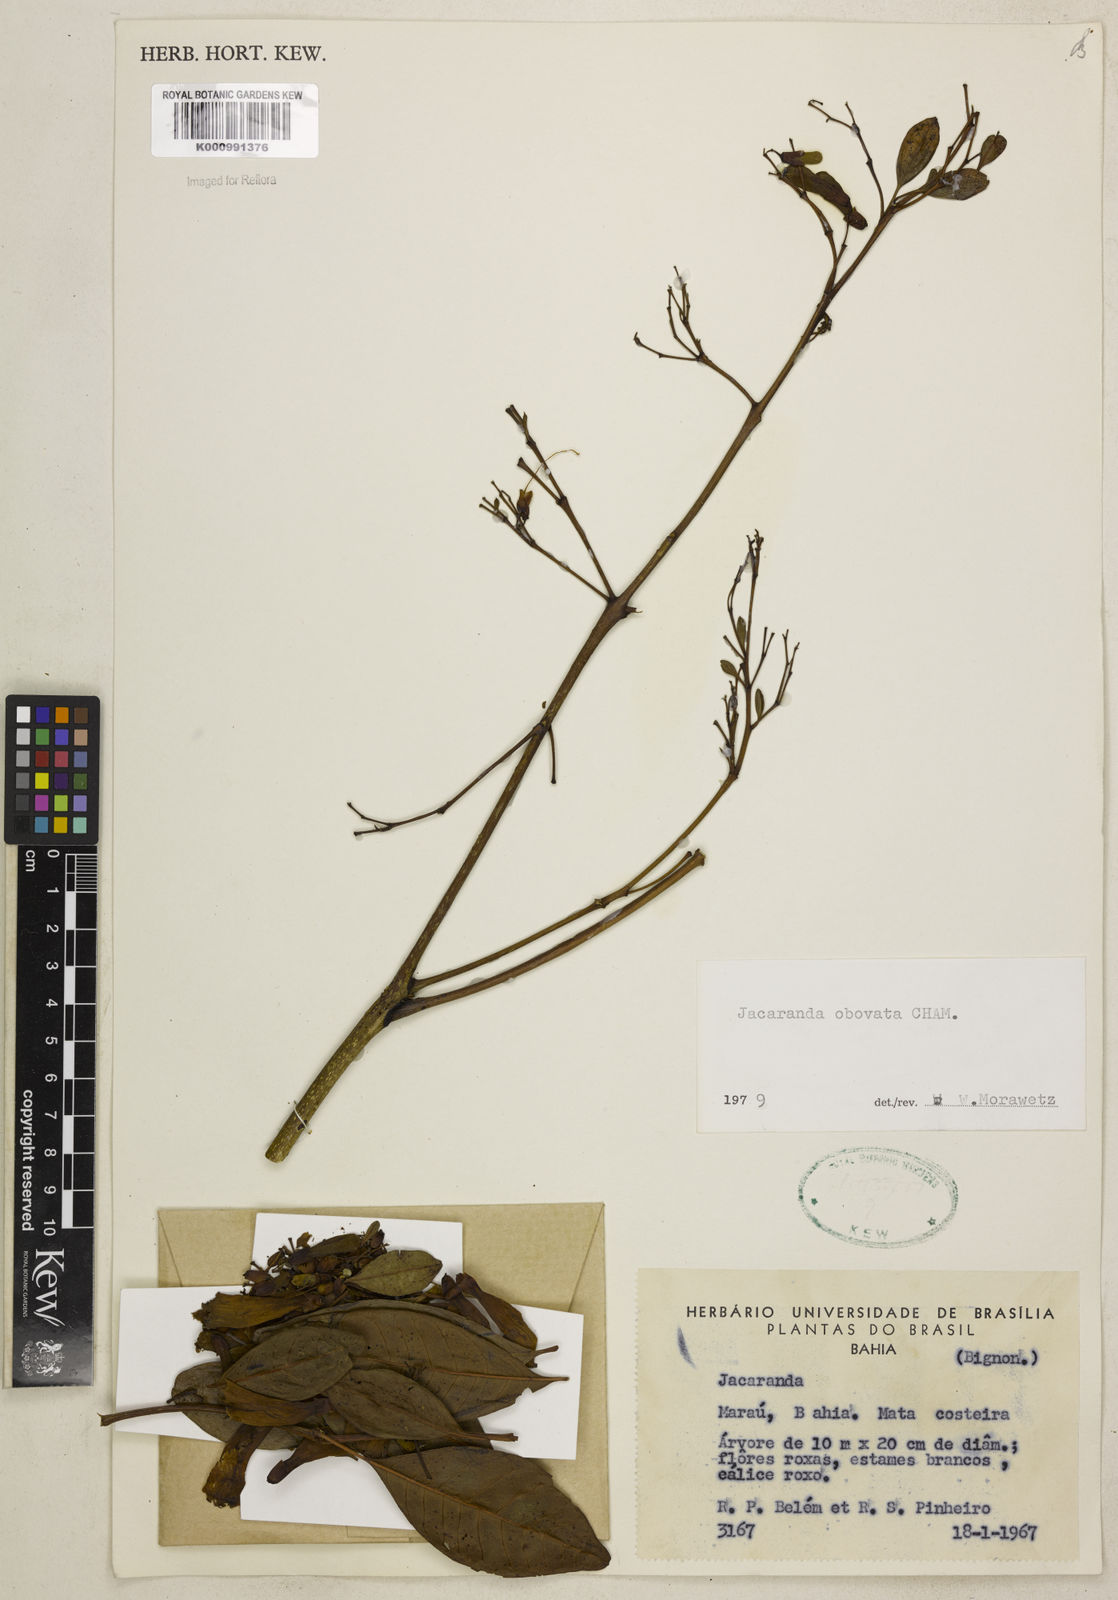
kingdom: Plantae
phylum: Tracheophyta
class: Magnoliopsida
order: Lamiales
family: Bignoniaceae
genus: Jacaranda
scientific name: Jacaranda obovata
